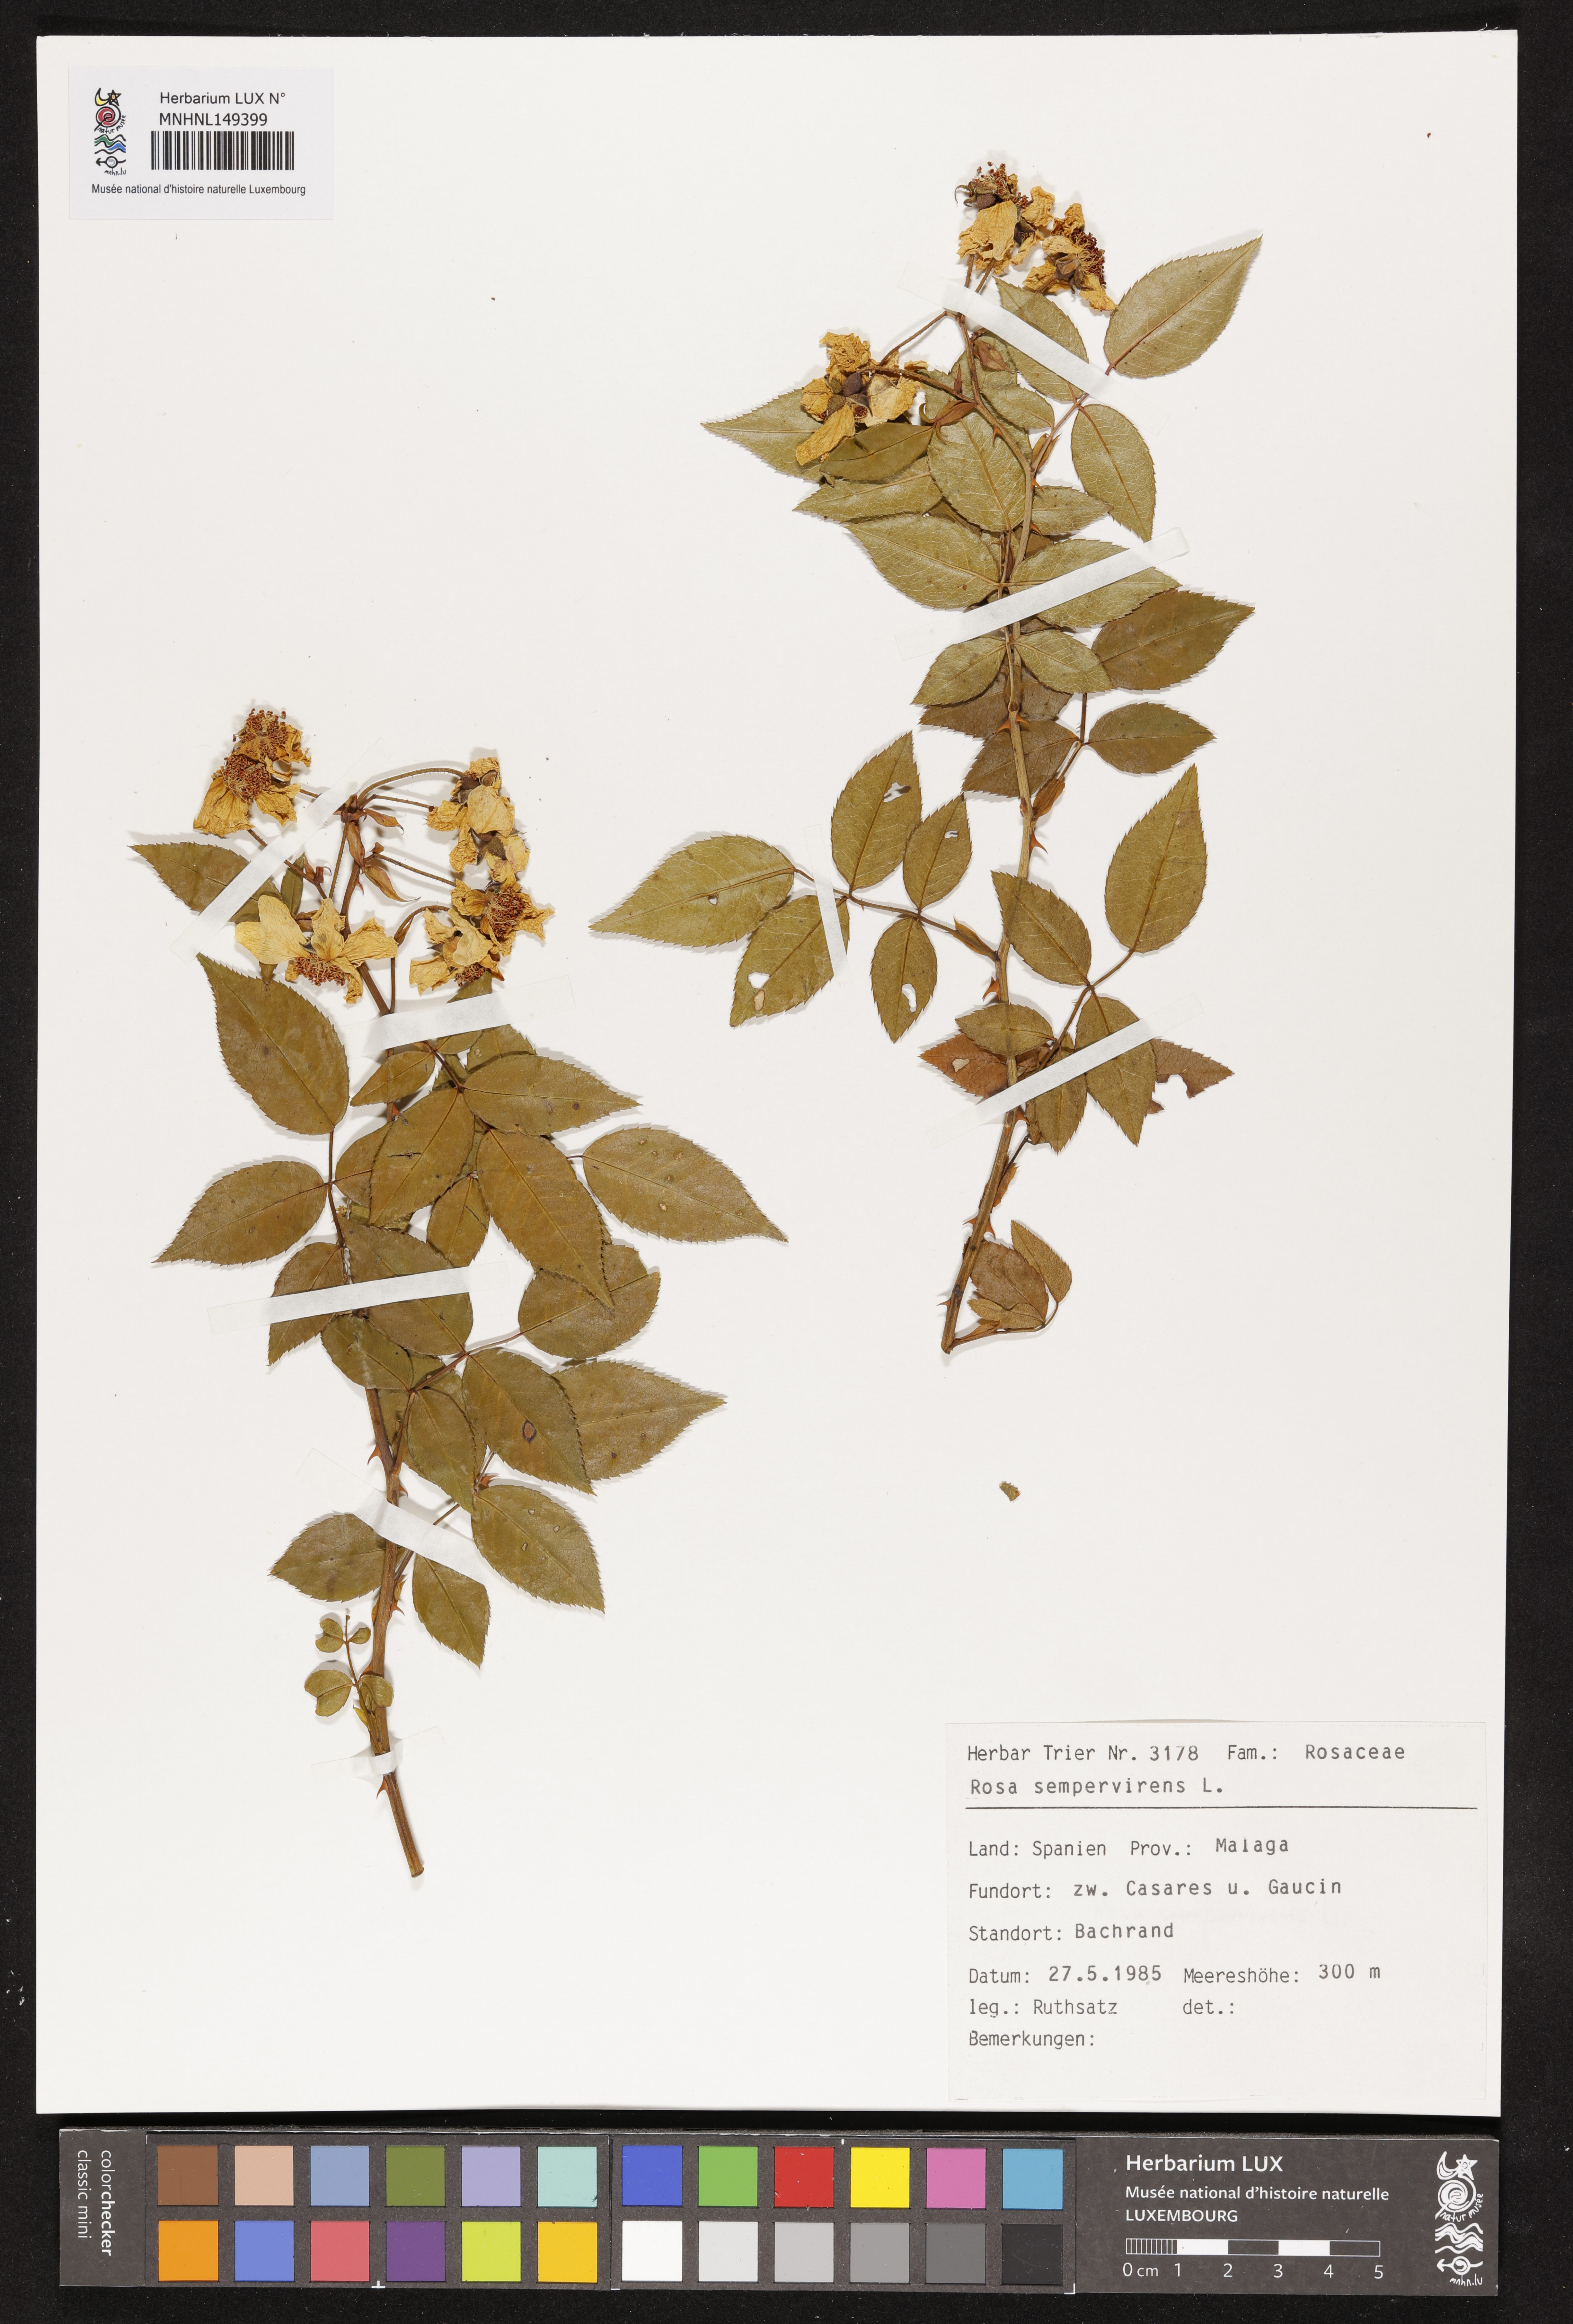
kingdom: Plantae
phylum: Tracheophyta
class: Magnoliopsida
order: Rosales
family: Rosaceae
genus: Rosa
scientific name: Rosa sempervirens
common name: Evergreen rose
